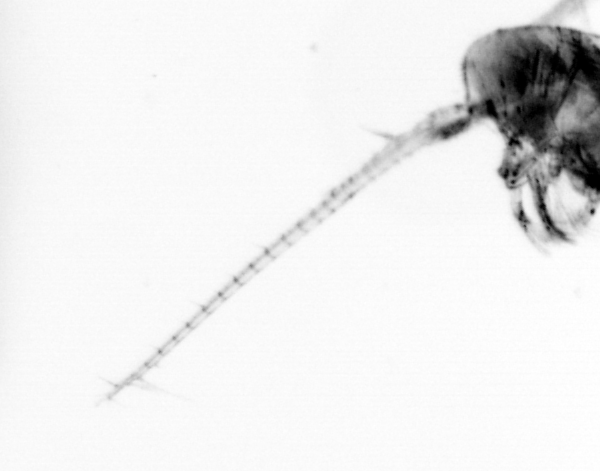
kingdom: Animalia
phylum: Arthropoda
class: Copepoda
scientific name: Copepoda
